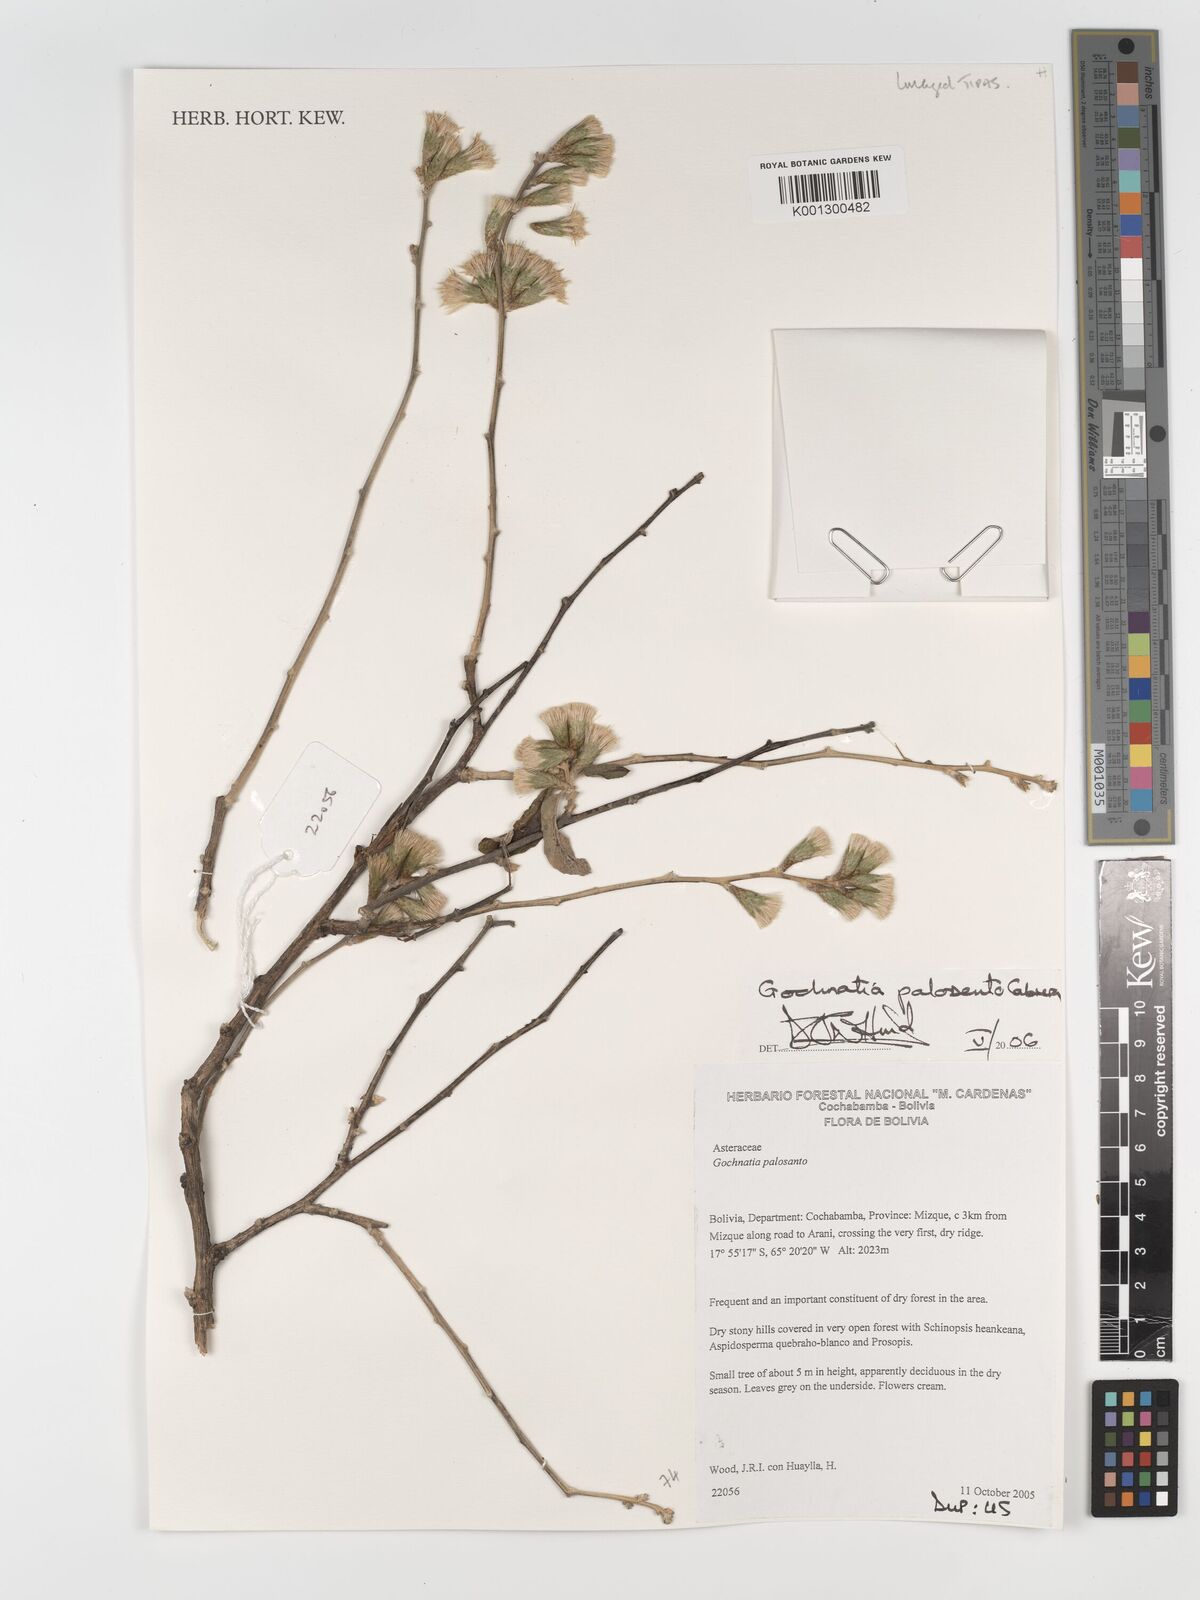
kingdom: Plantae
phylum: Tracheophyta
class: Magnoliopsida
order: Asterales
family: Asteraceae
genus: Gochnatia
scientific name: Gochnatia palosanto
